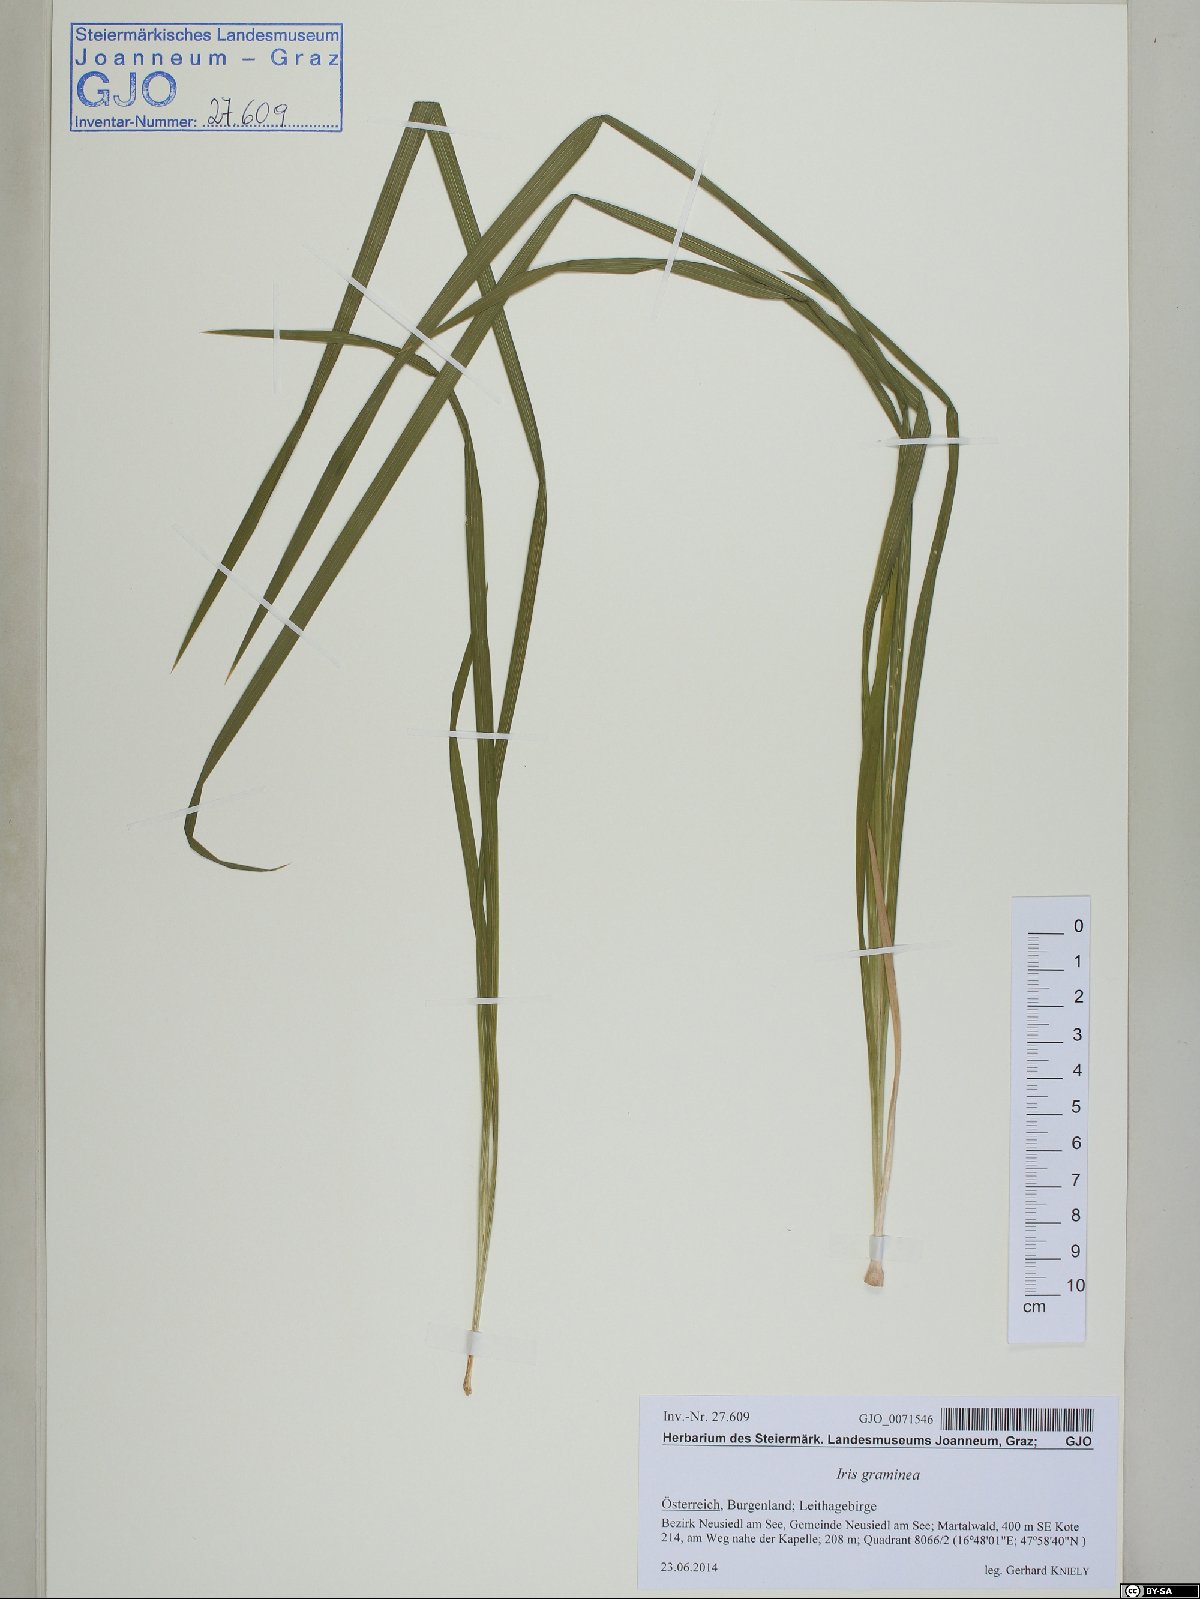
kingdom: Plantae
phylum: Tracheophyta
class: Liliopsida
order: Asparagales
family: Iridaceae
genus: Iris
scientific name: Iris graminea
